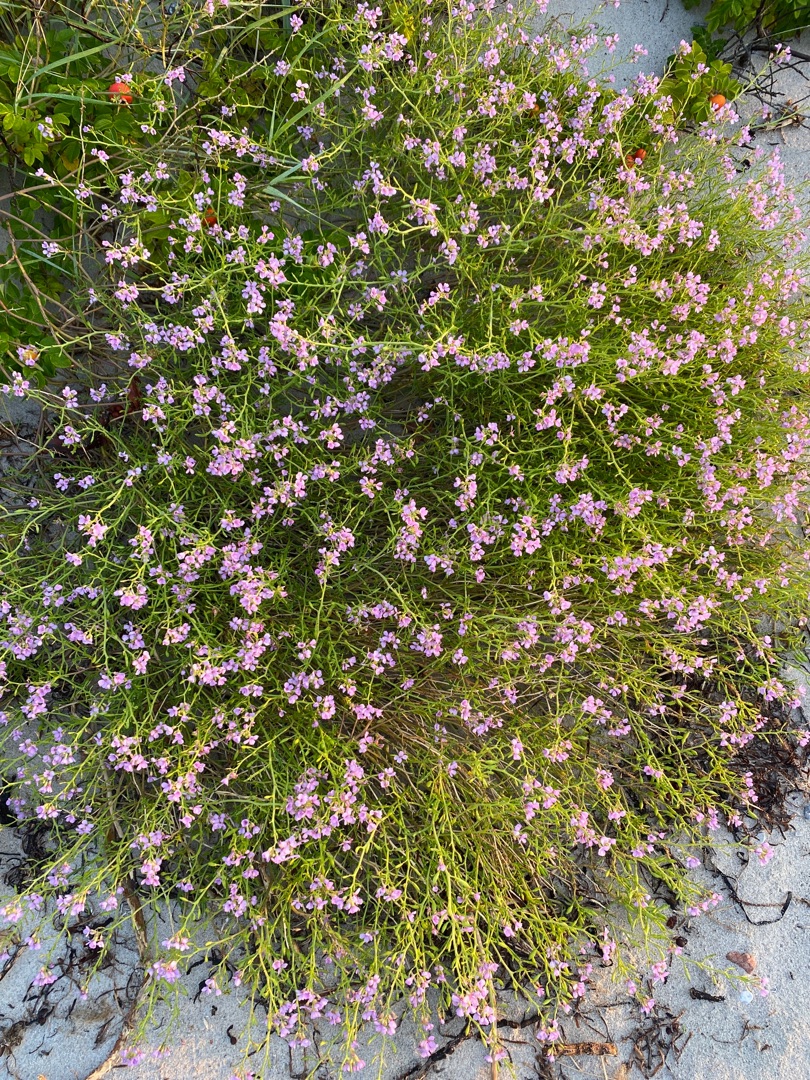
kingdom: Plantae
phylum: Tracheophyta
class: Magnoliopsida
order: Brassicales
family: Brassicaceae
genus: Cakile
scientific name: Cakile maritima
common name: Strandsennep
